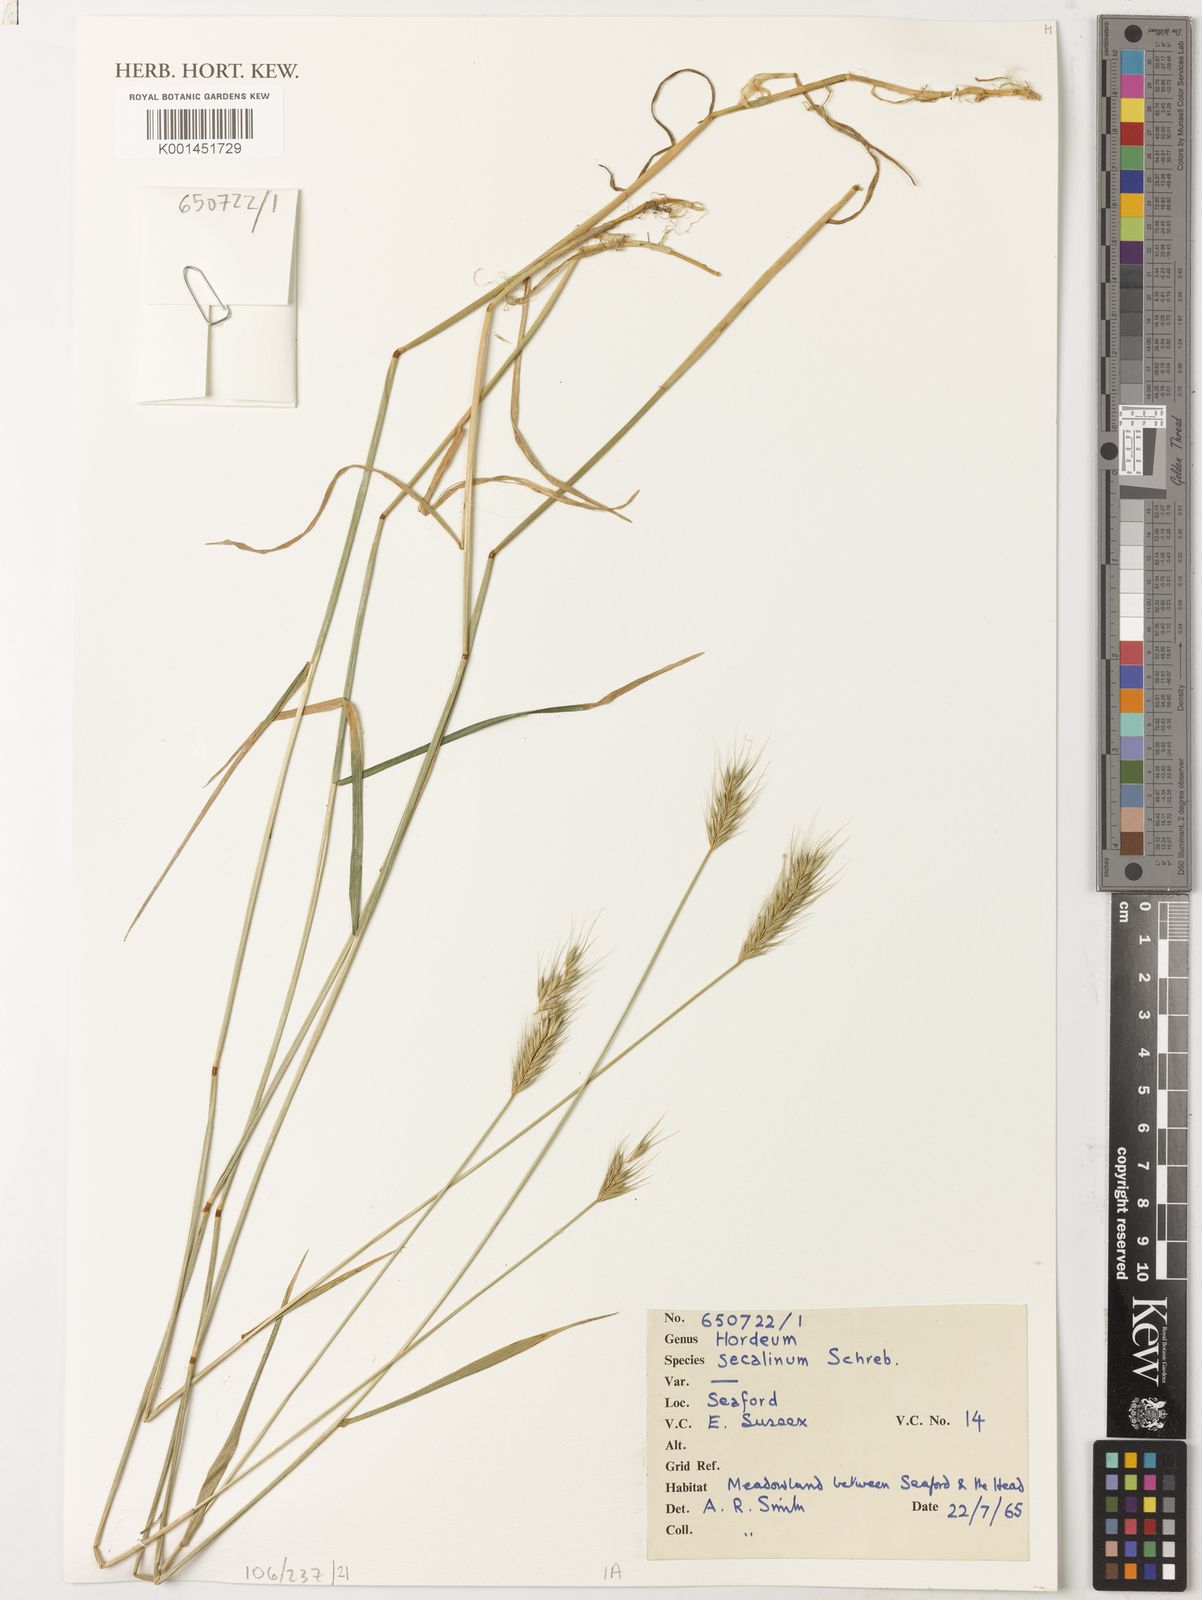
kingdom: Plantae
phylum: Tracheophyta
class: Liliopsida
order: Poales
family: Poaceae
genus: Hordeum
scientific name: Hordeum secalinum
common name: Meadow barley
